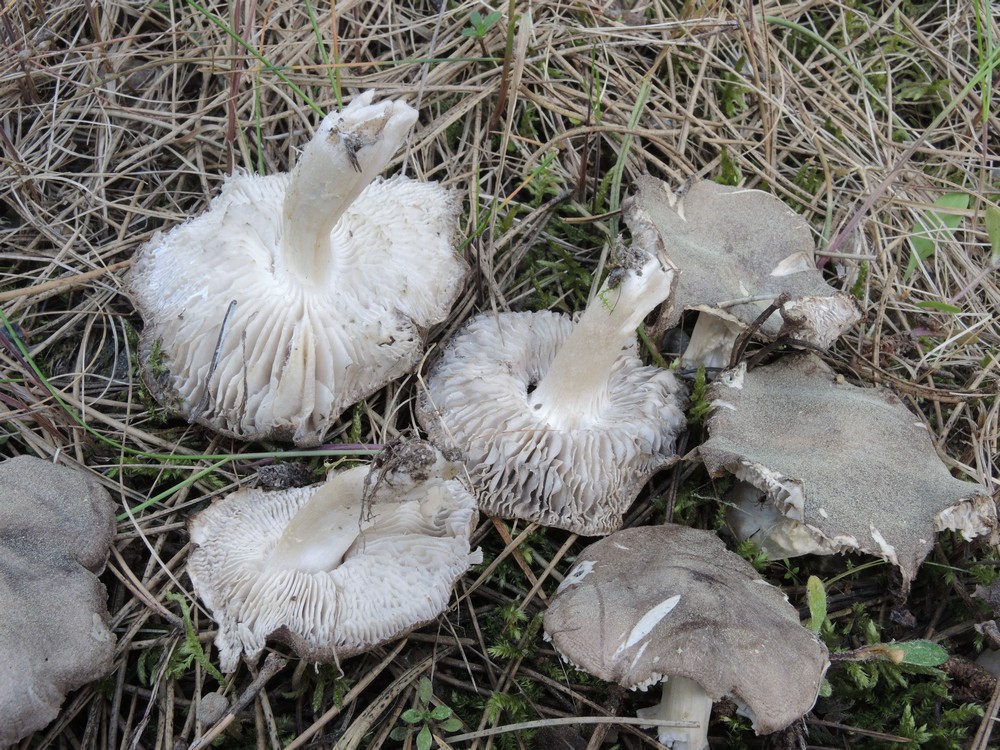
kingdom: Fungi
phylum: Basidiomycota
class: Agaricomycetes
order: Agaricales
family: Tricholomataceae
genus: Tricholoma
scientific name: Tricholoma terreum
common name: jordfarvet ridderhat
